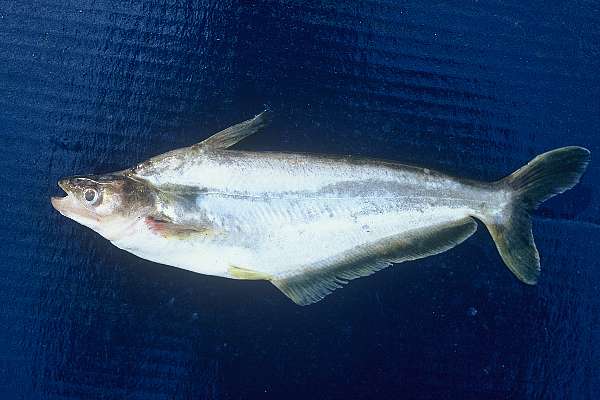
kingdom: Animalia
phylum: Chordata
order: Siluriformes
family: Schilbeidae
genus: Schilbe
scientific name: Schilbe intermedius
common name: Silver catfish
